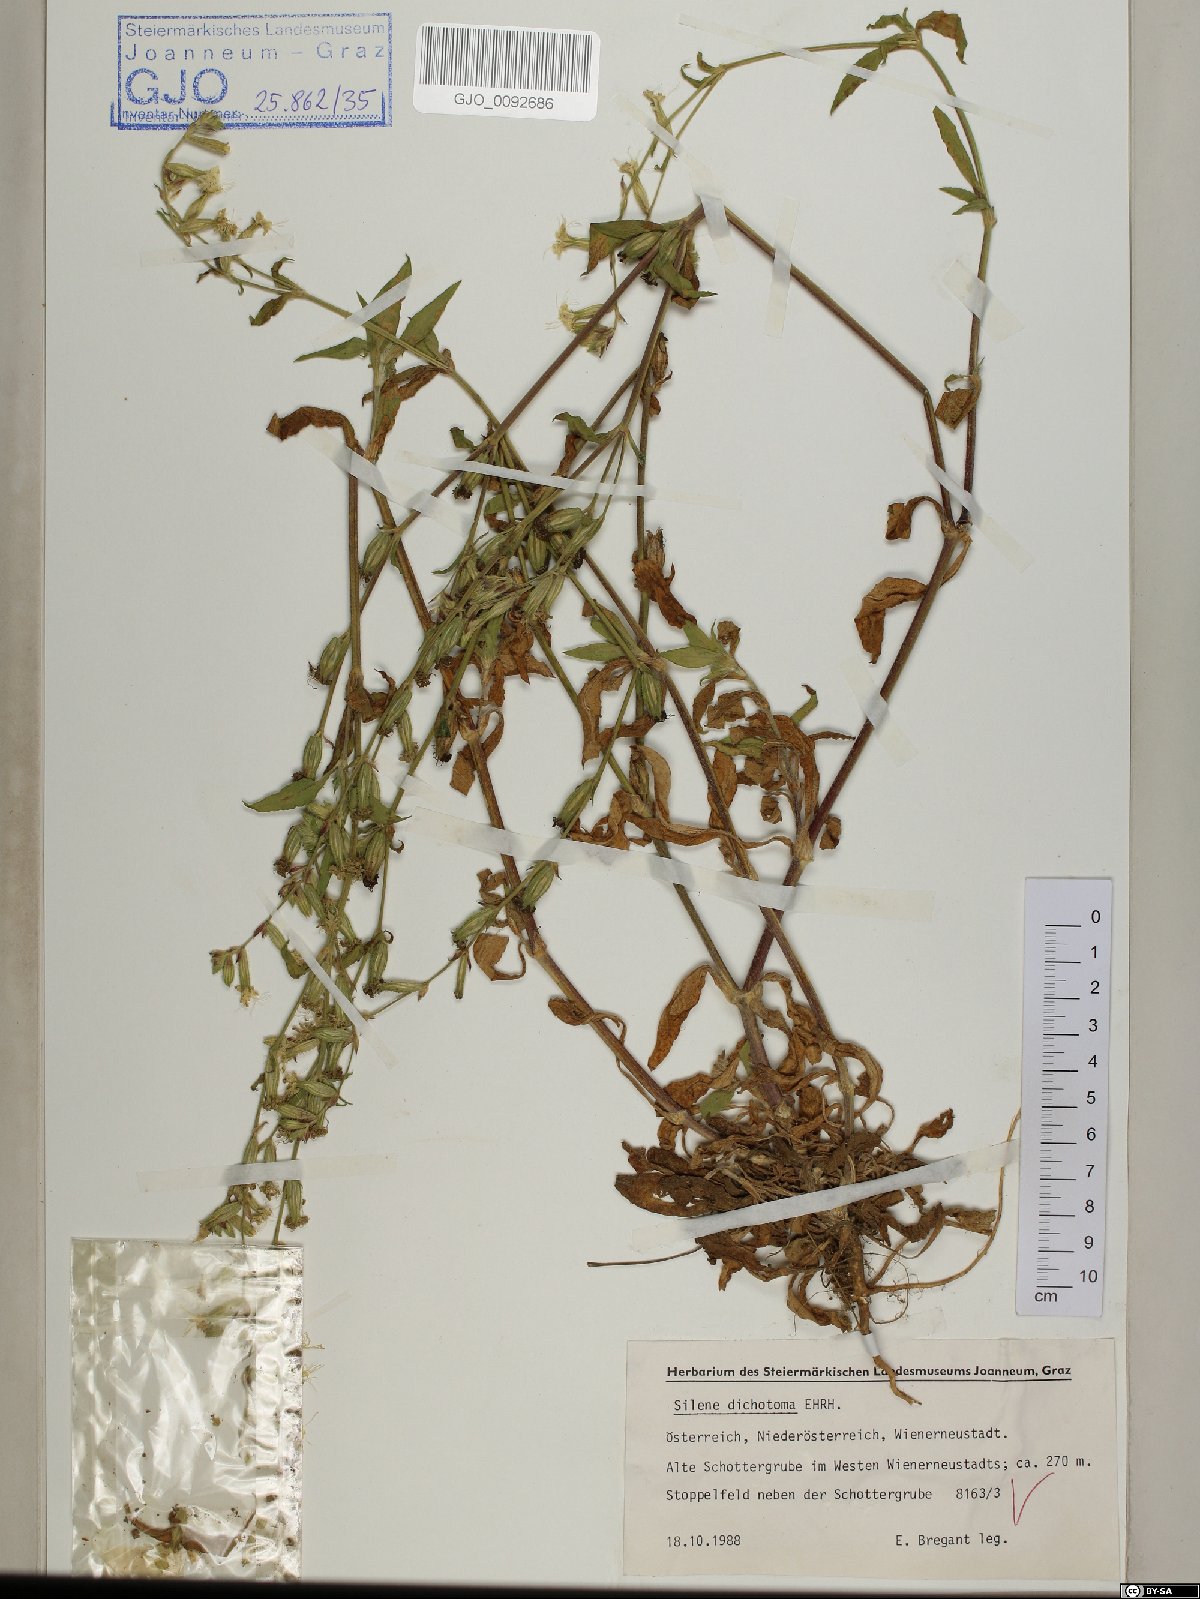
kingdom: Plantae
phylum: Tracheophyta
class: Magnoliopsida
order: Caryophyllales
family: Caryophyllaceae
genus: Silene
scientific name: Silene dichotoma
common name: Forked catchfly
